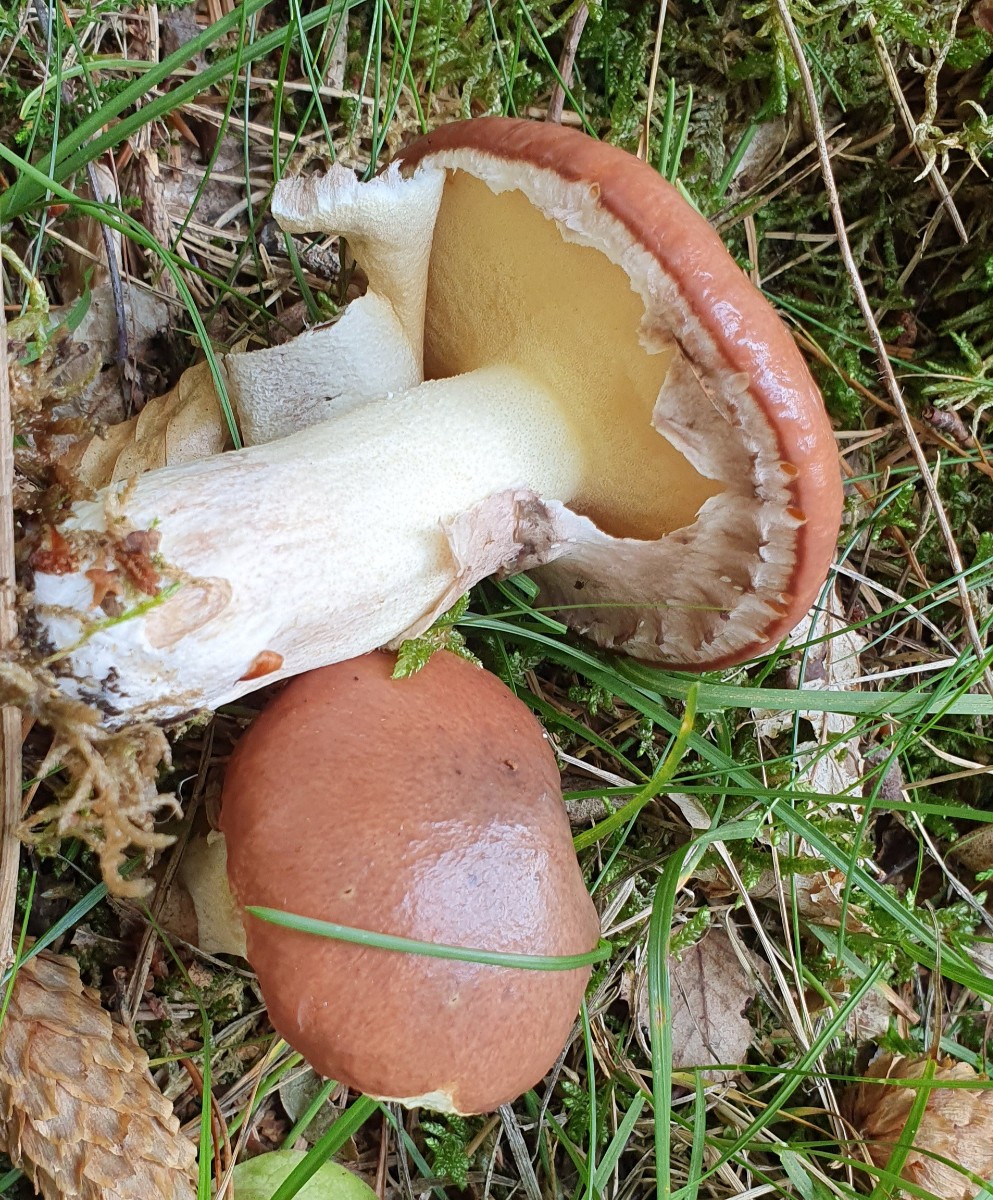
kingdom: Fungi
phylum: Basidiomycota
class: Agaricomycetes
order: Boletales
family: Suillaceae
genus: Suillus
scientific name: Suillus luteus
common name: brungul slimrørhat
